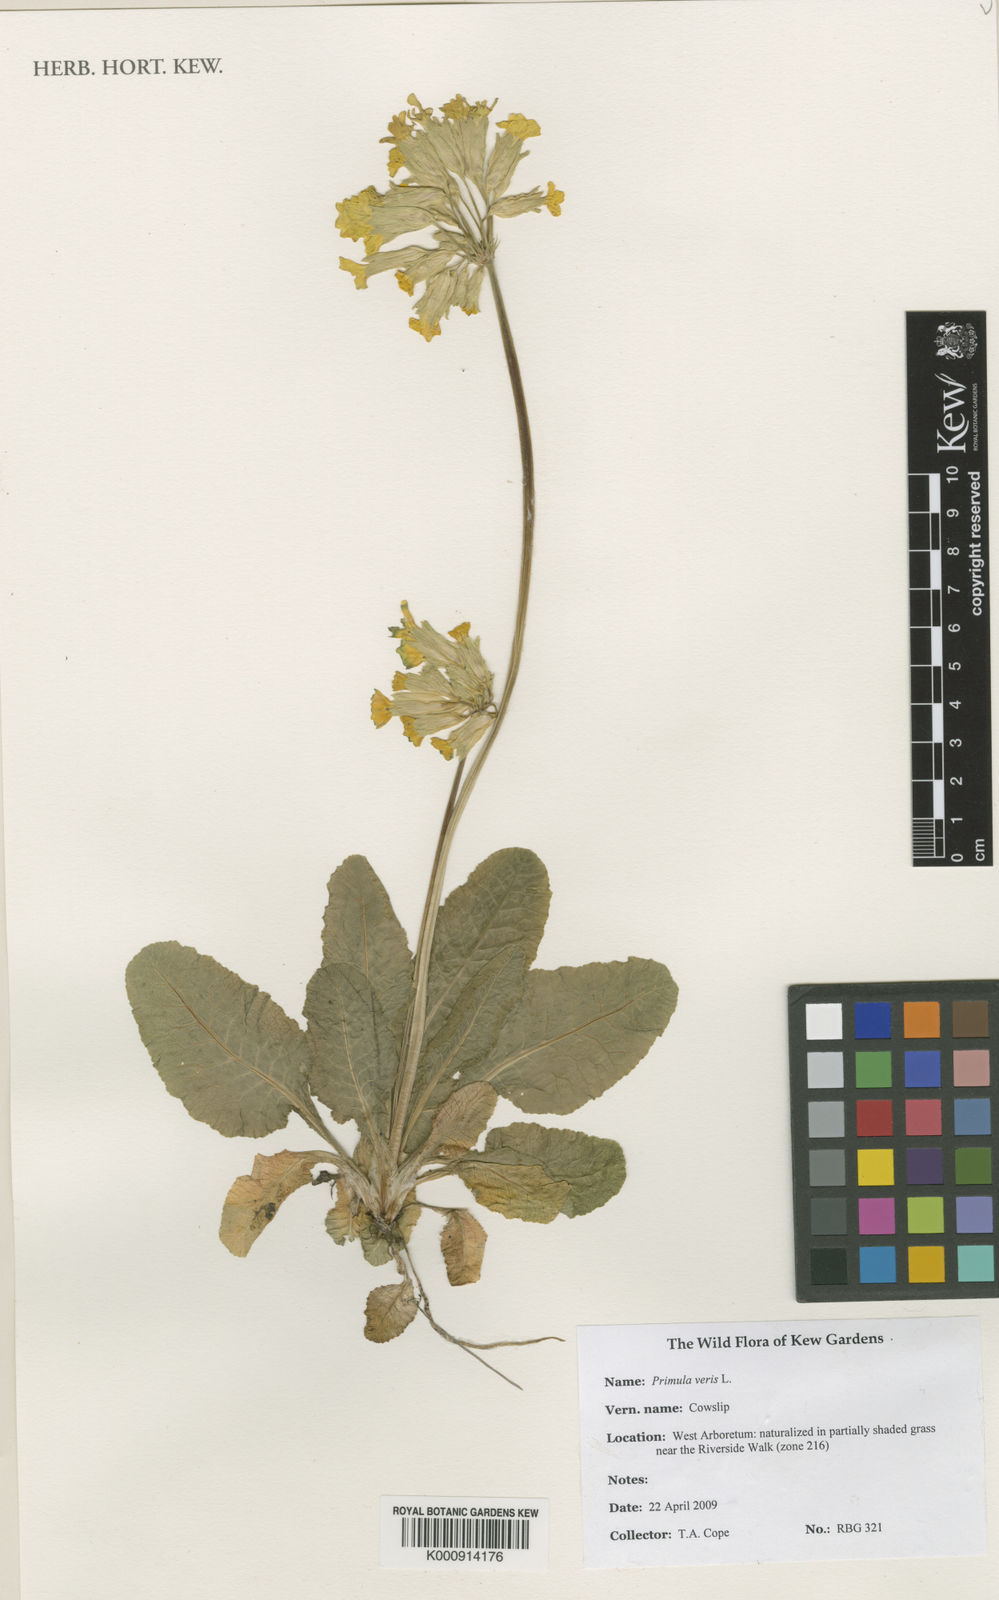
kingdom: Plantae
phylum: Tracheophyta
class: Magnoliopsida
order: Ericales
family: Primulaceae
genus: Primula
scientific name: Primula veris
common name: Cowslip
